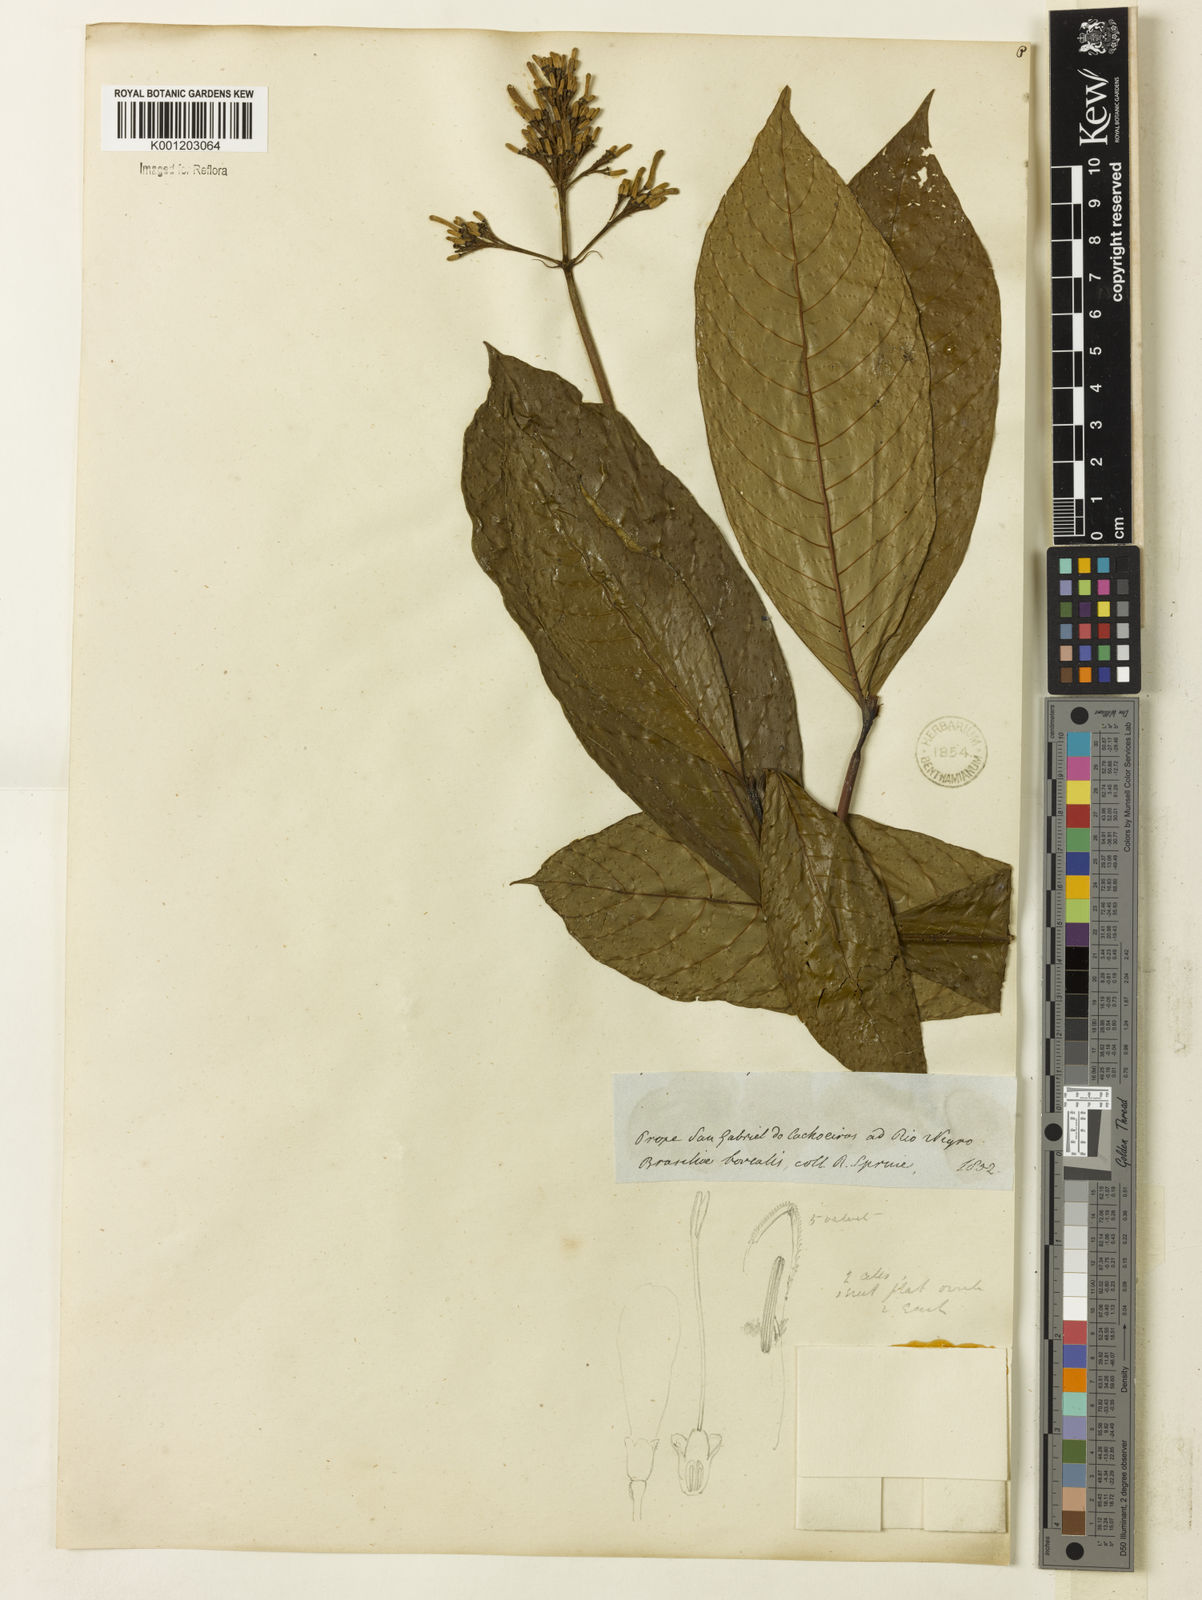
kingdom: Plantae
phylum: Tracheophyta
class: Magnoliopsida
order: Gentianales
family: Rubiaceae
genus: Palicourea
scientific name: Palicourea grandiflora
